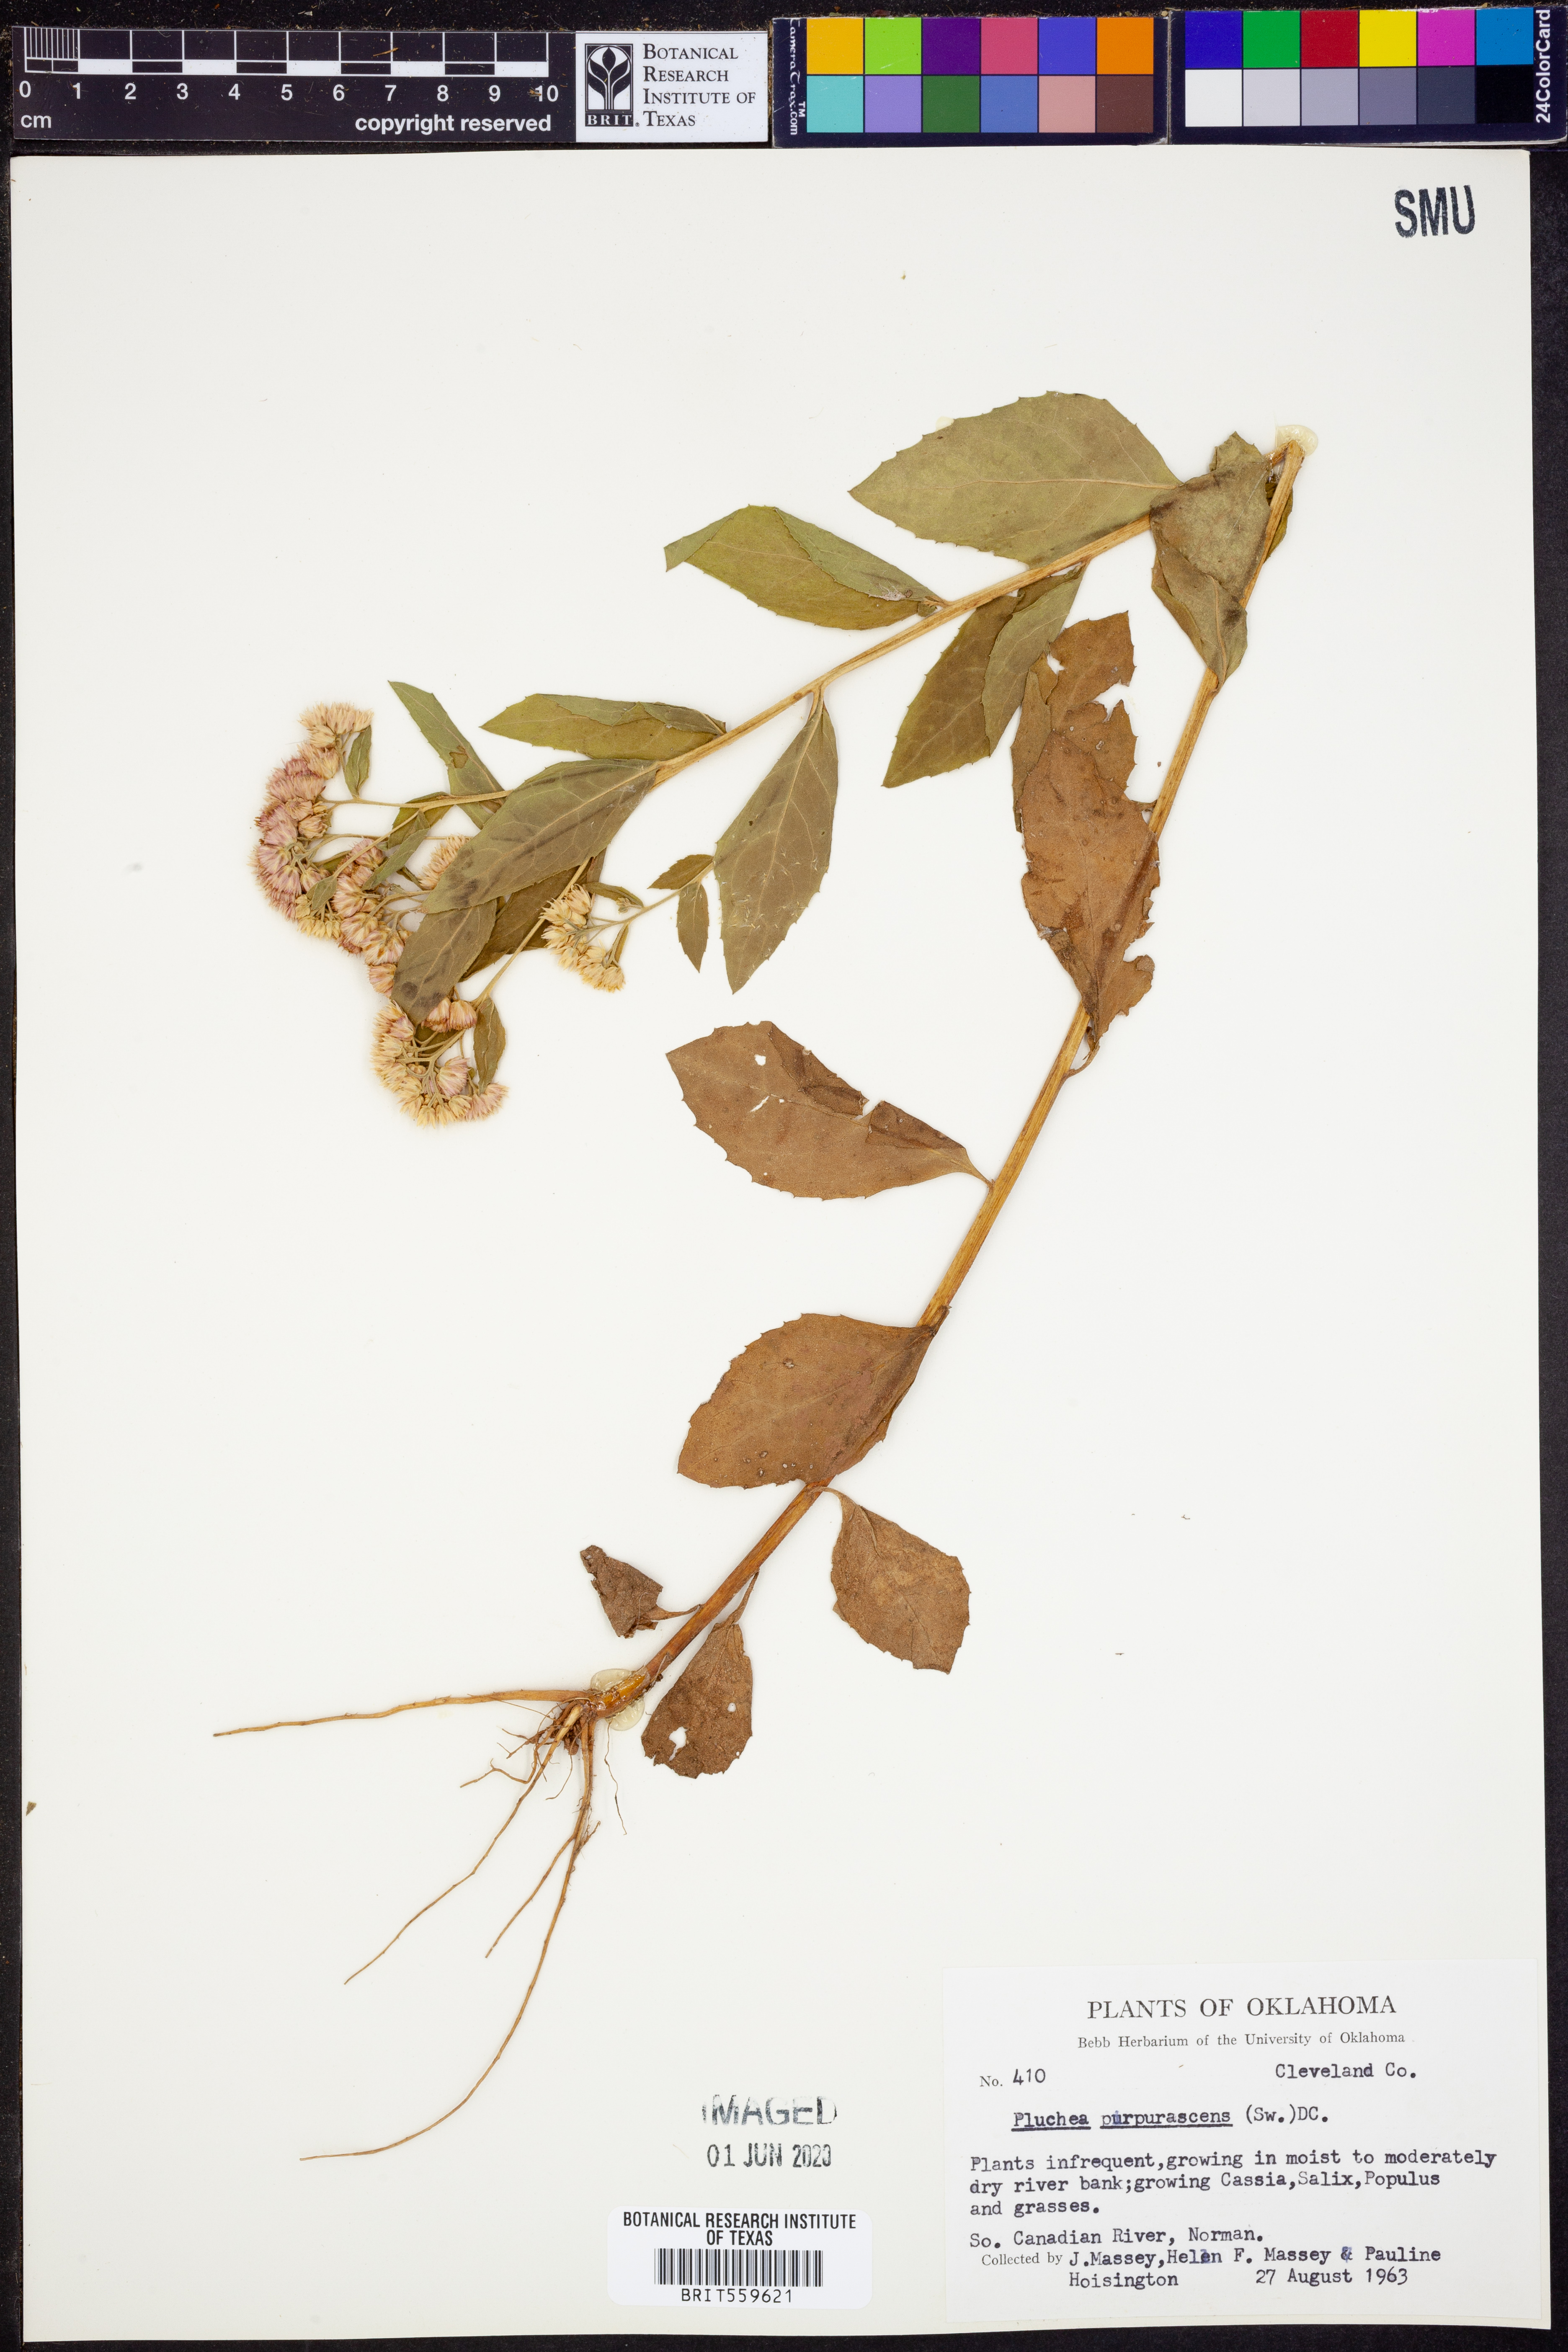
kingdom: Plantae
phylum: Tracheophyta
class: Magnoliopsida
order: Asterales
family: Asteraceae
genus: Pluchea
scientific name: Pluchea odorata
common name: Saltmarsh fleabane
